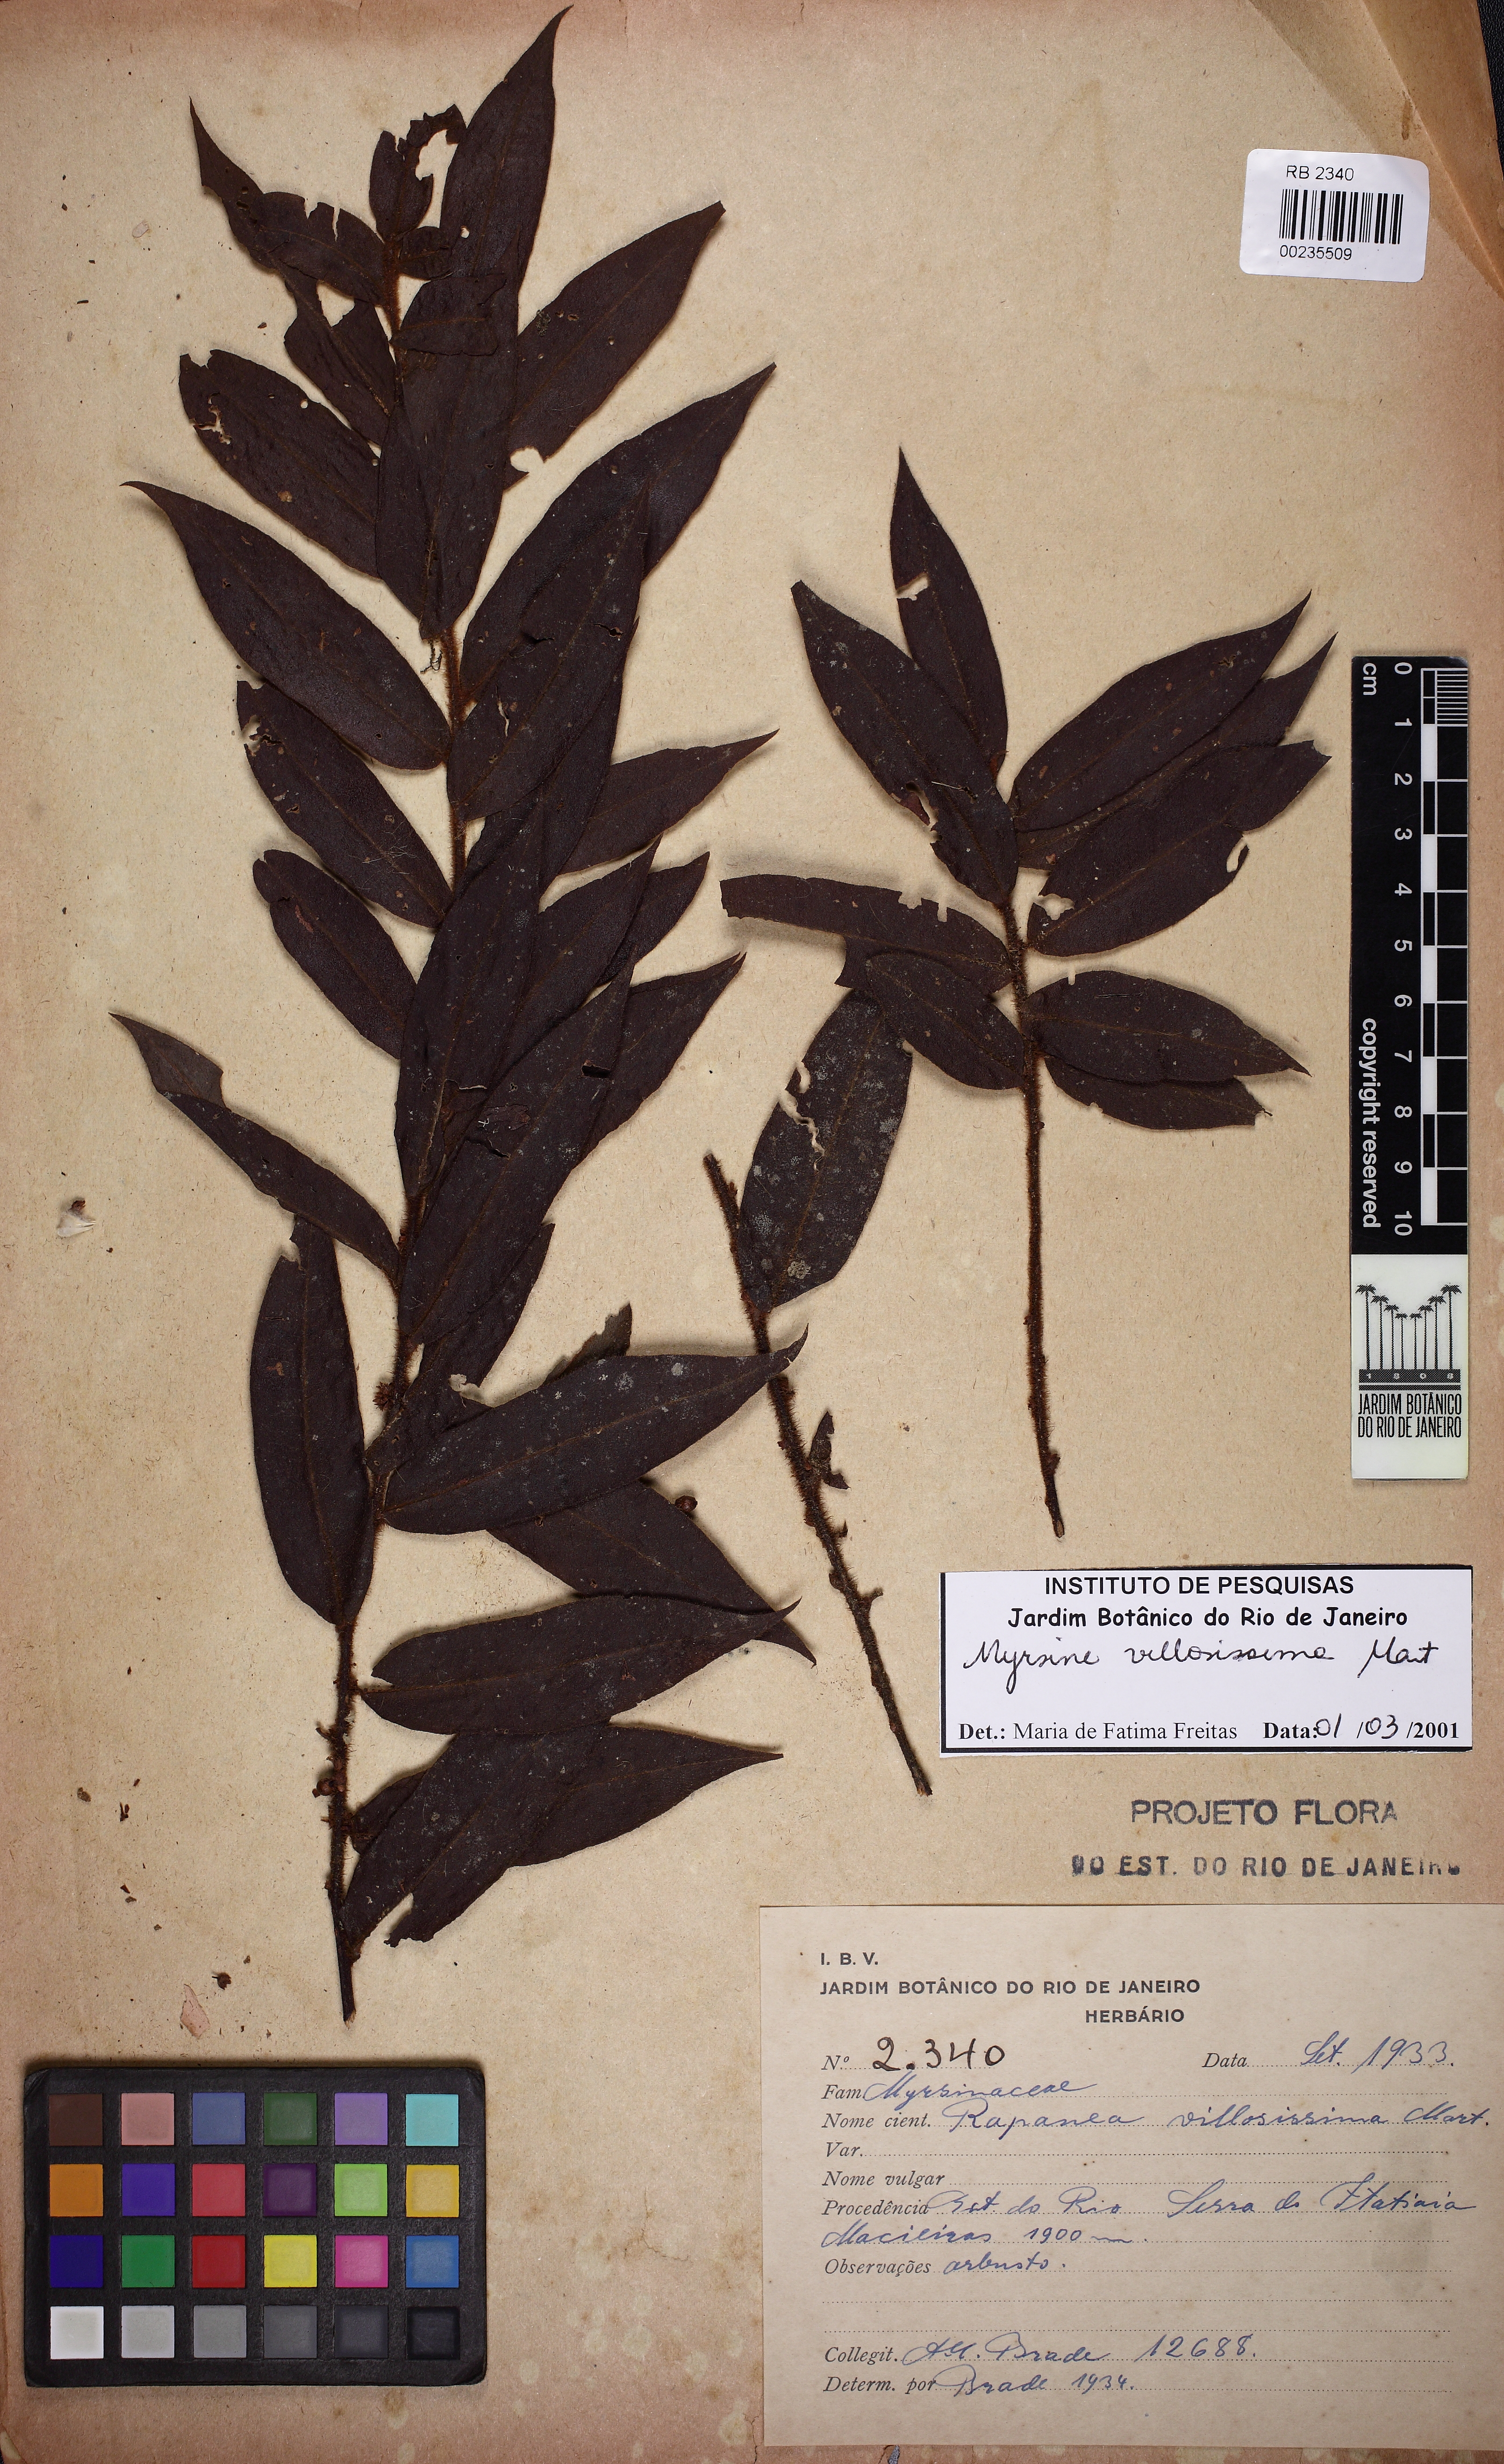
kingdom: Plantae
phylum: Tracheophyta
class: Magnoliopsida
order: Ericales
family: Primulaceae
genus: Myrsine
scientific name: Myrsine villosissima
